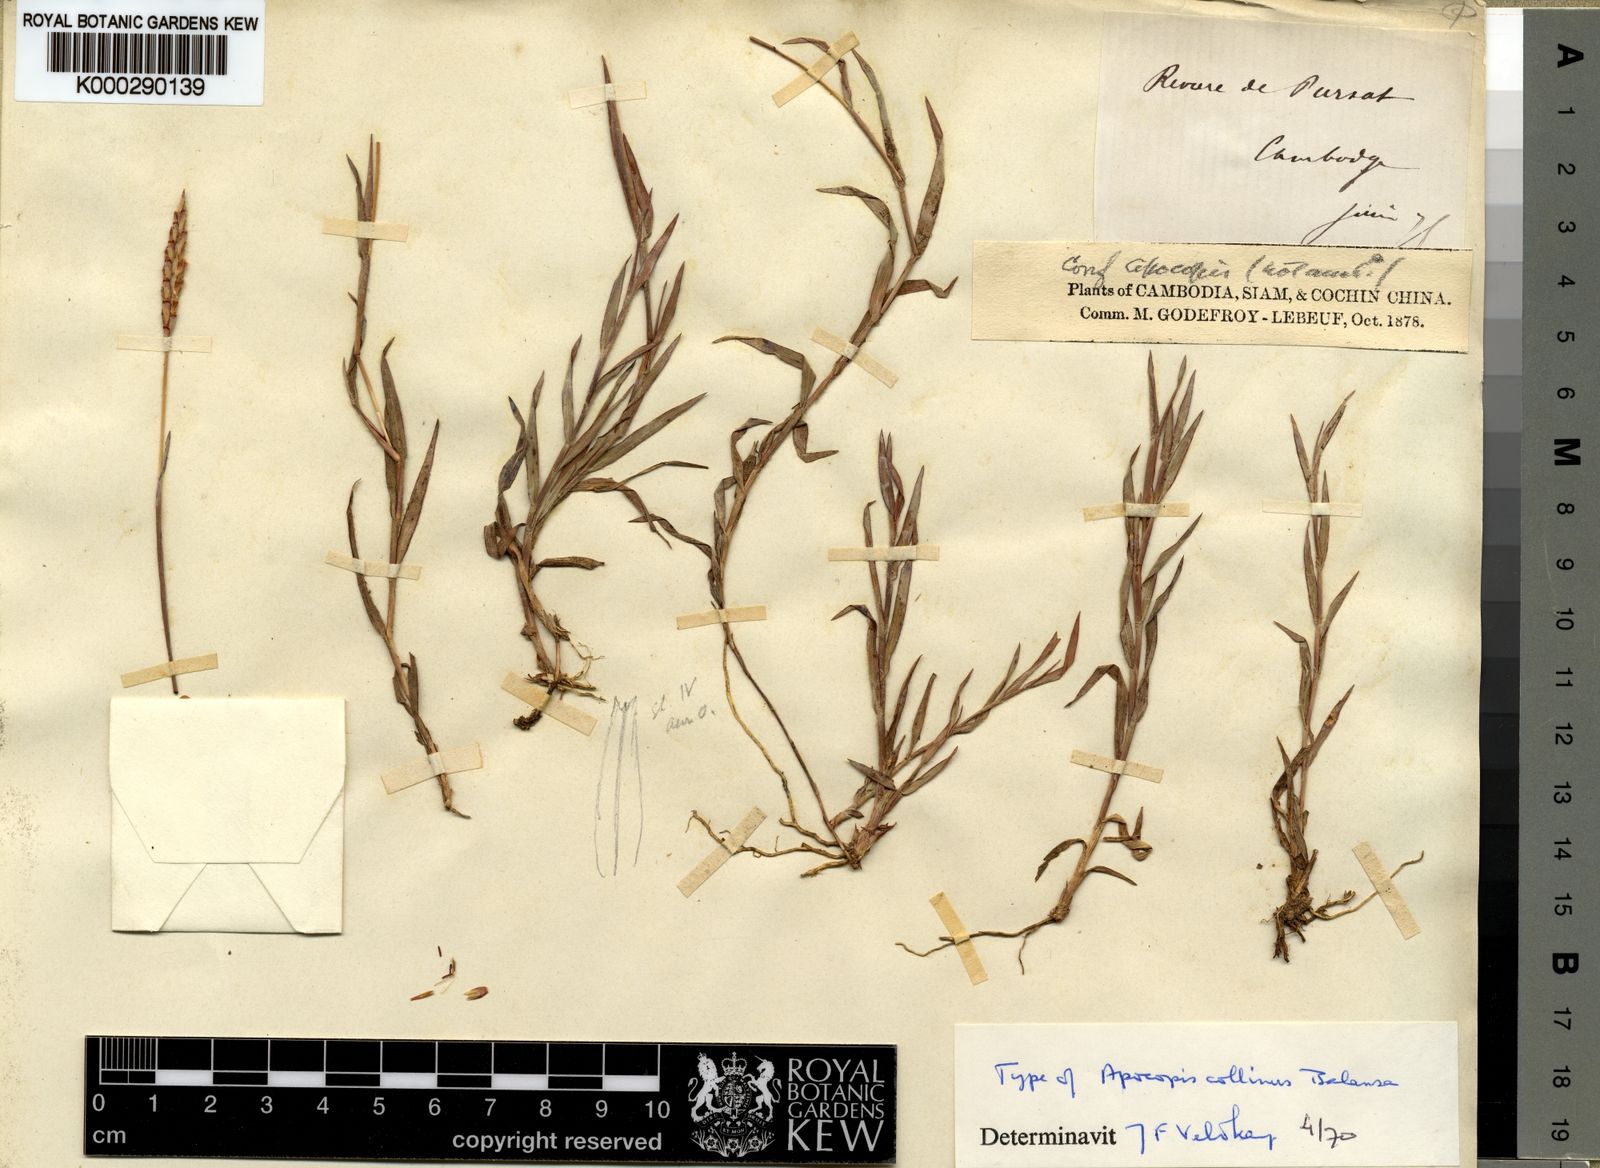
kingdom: Plantae
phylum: Tracheophyta
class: Liliopsida
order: Poales
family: Poaceae
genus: Apocopis
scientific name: Apocopis collinus
